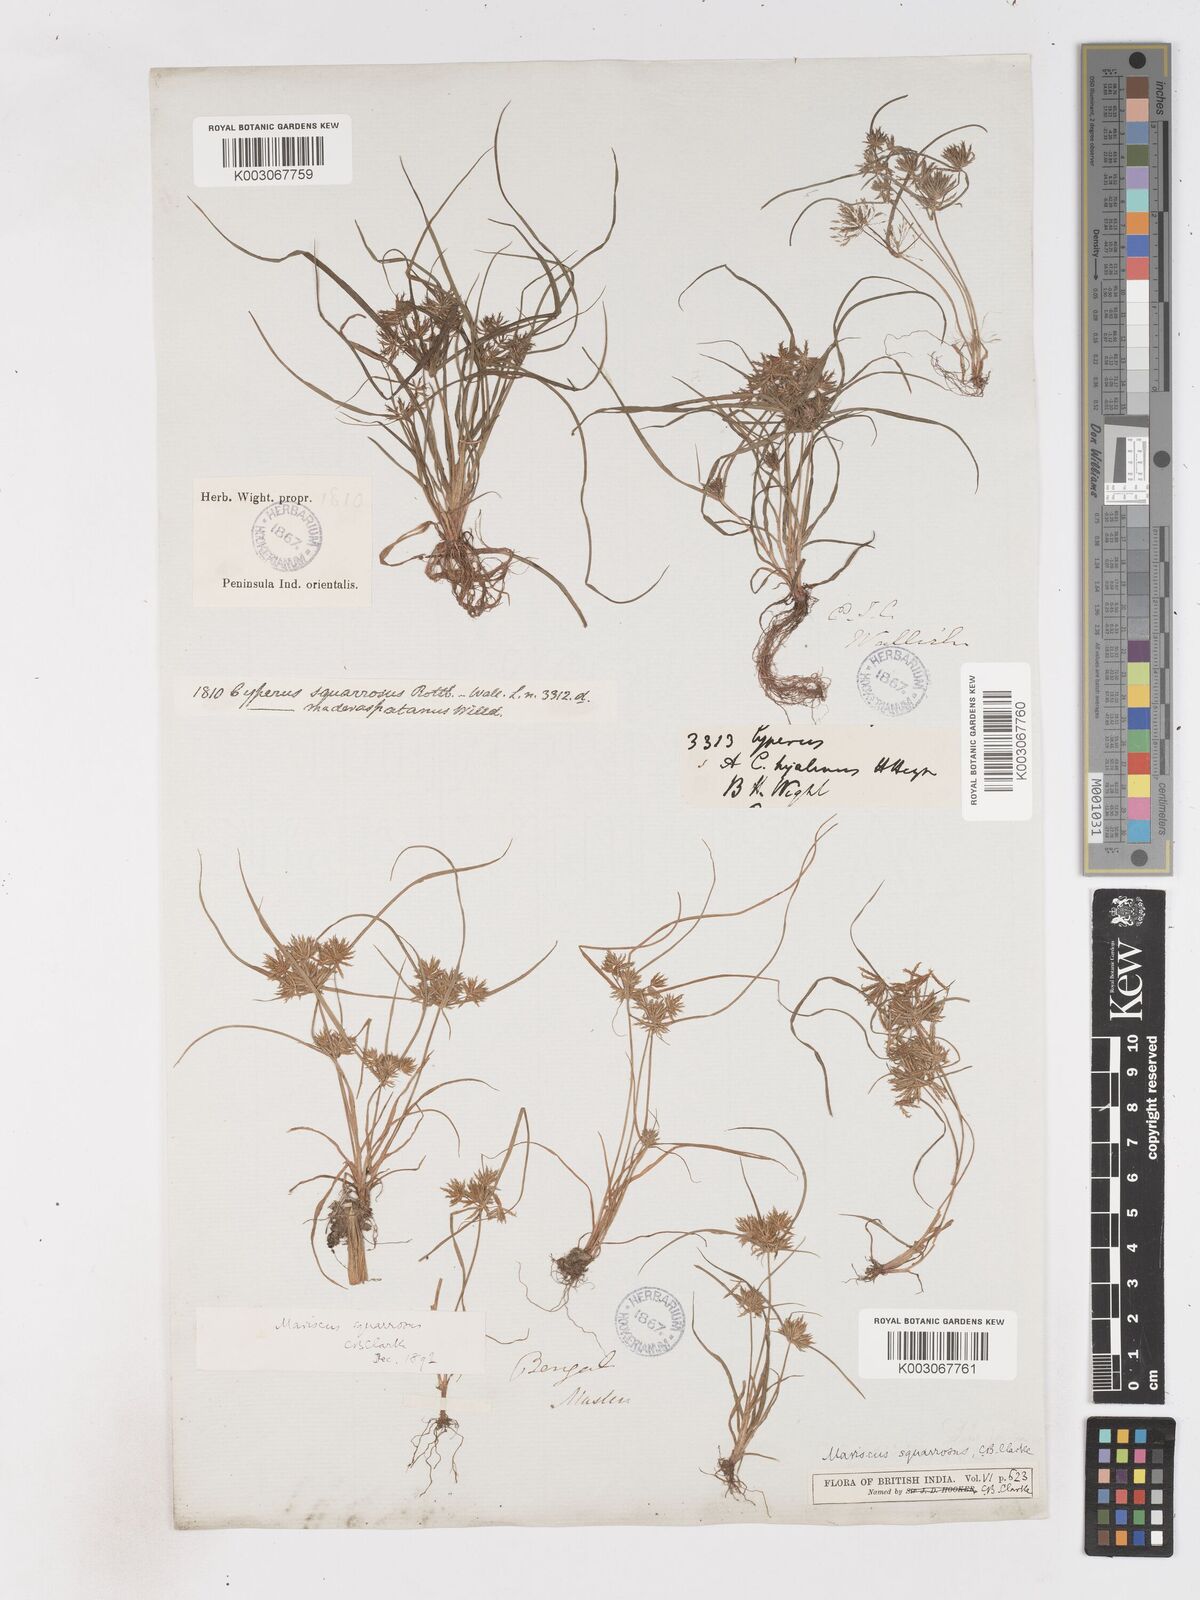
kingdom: Plantae
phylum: Tracheophyta
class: Liliopsida
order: Poales
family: Cyperaceae
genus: Cyperus
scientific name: Cyperus maderaspatanus
